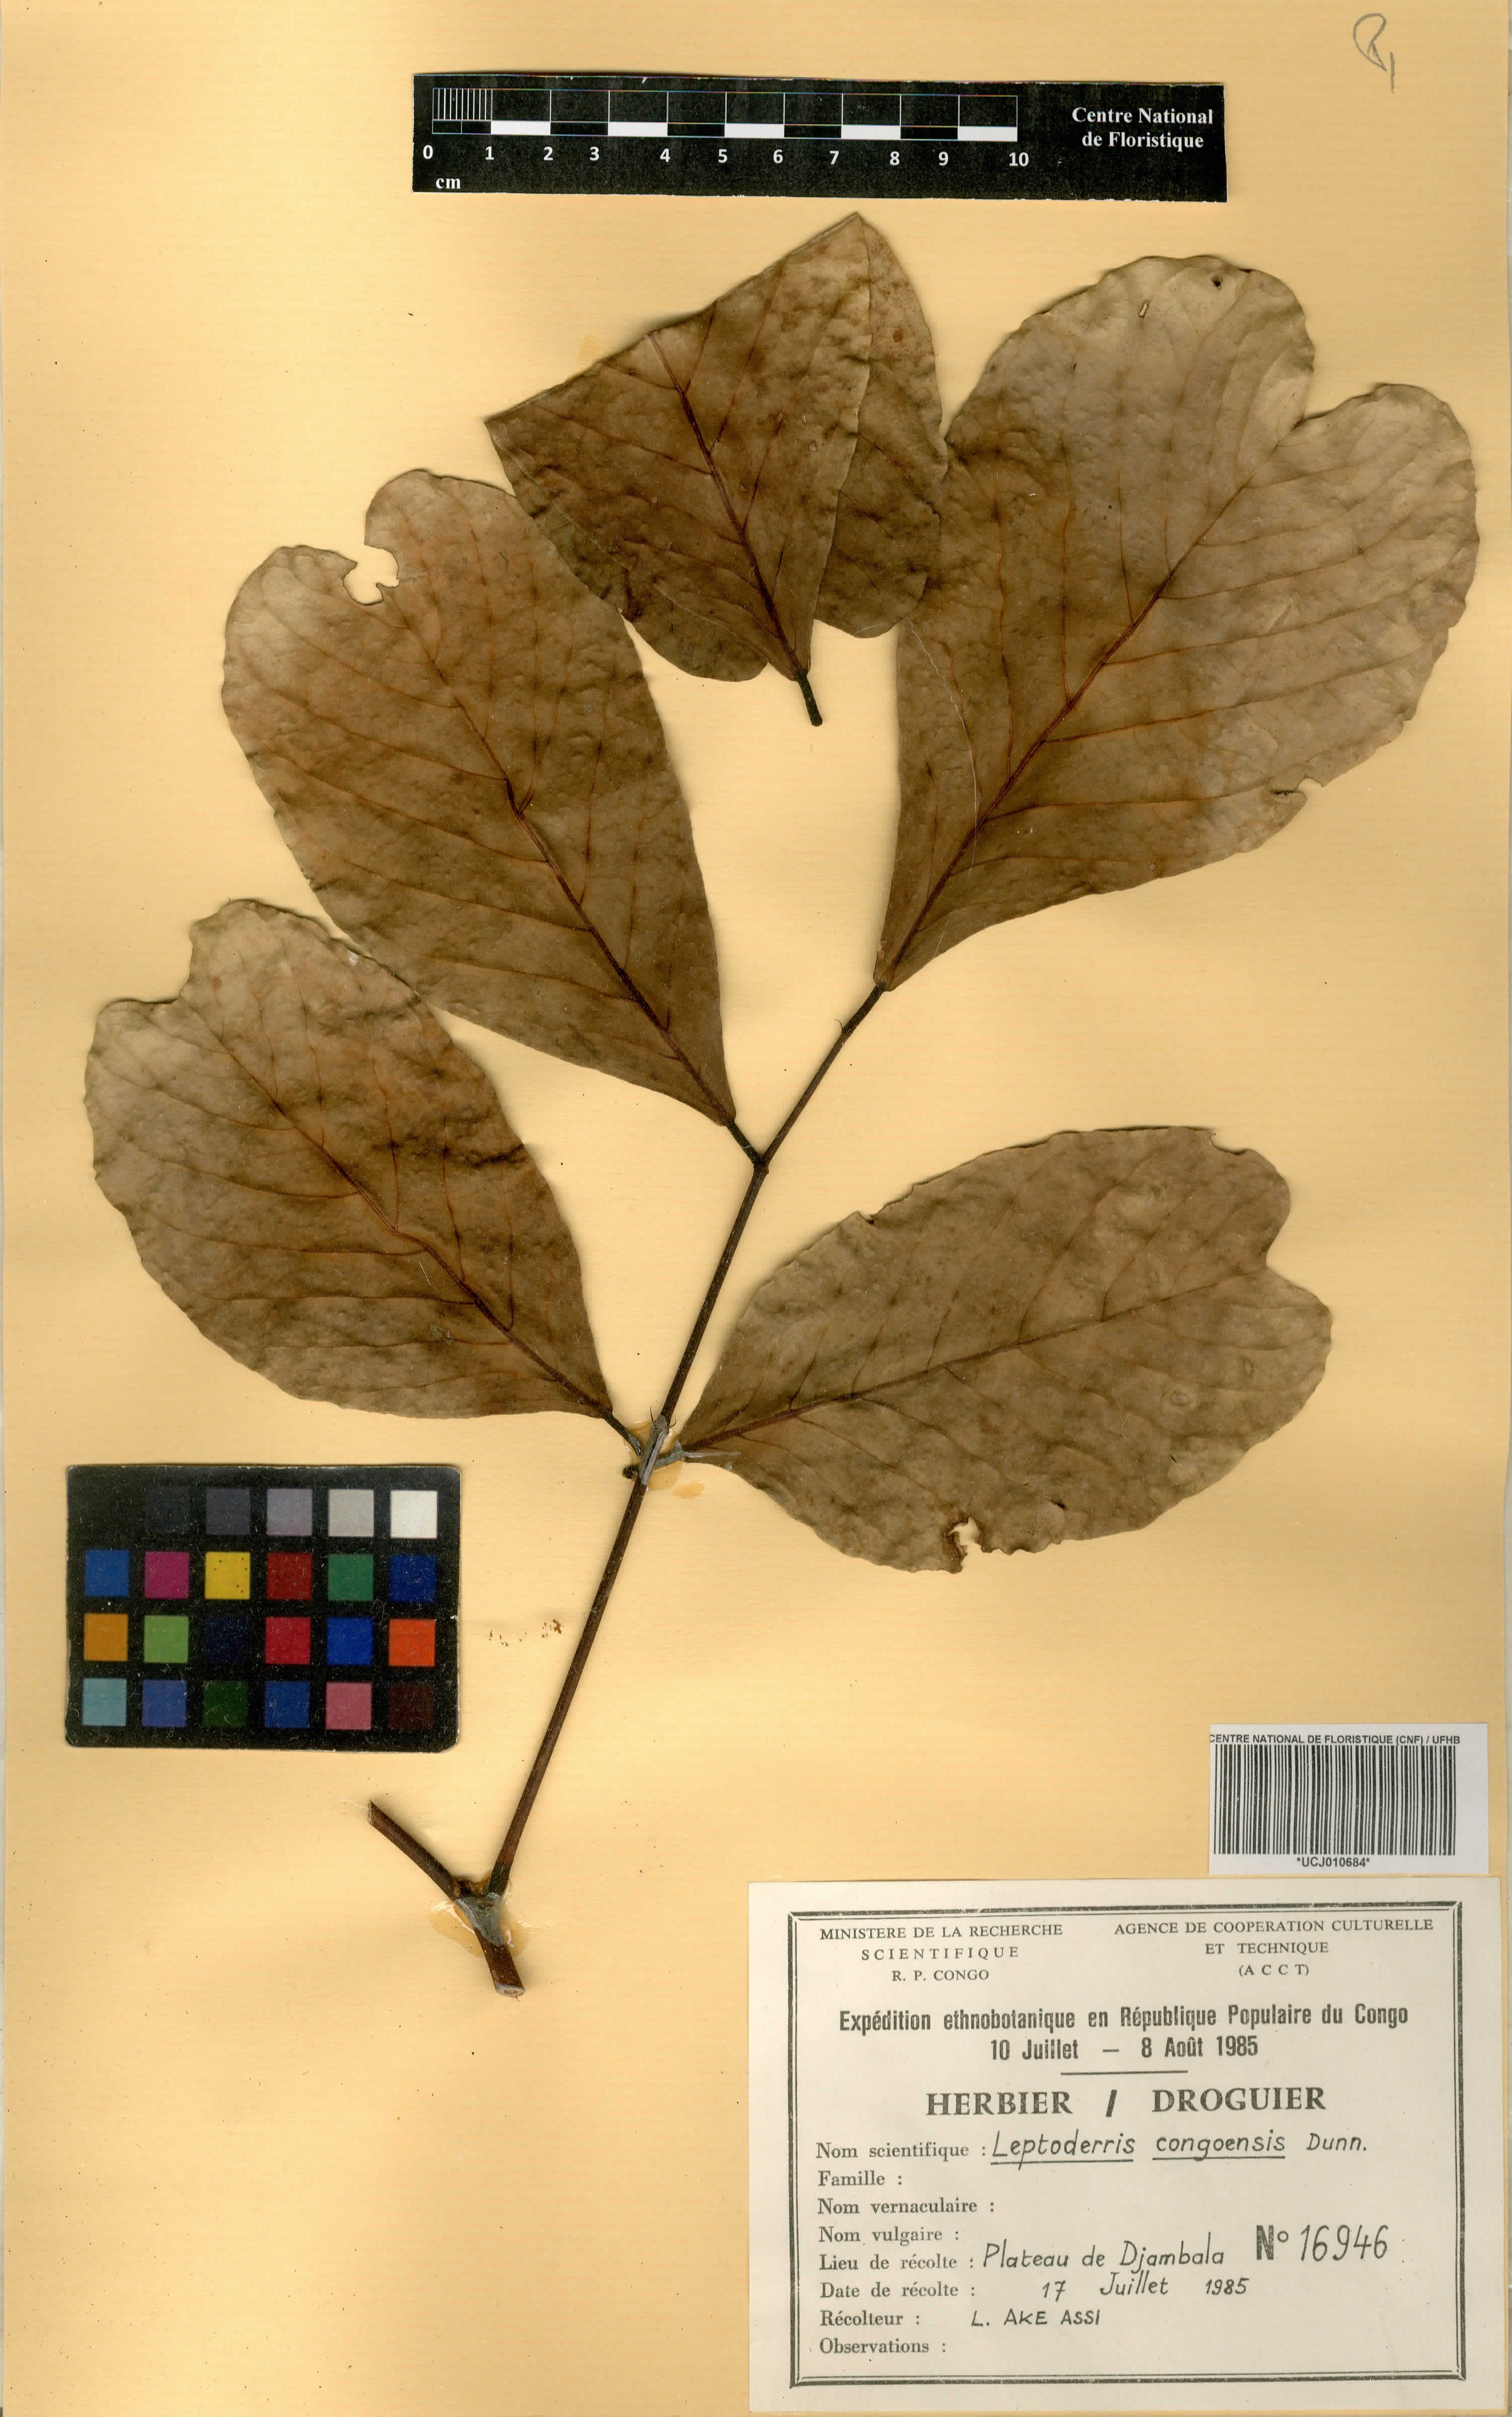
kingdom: Plantae
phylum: Tracheophyta
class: Magnoliopsida
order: Fabales
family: Fabaceae
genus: Leptoderris
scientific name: Leptoderris congolensis
